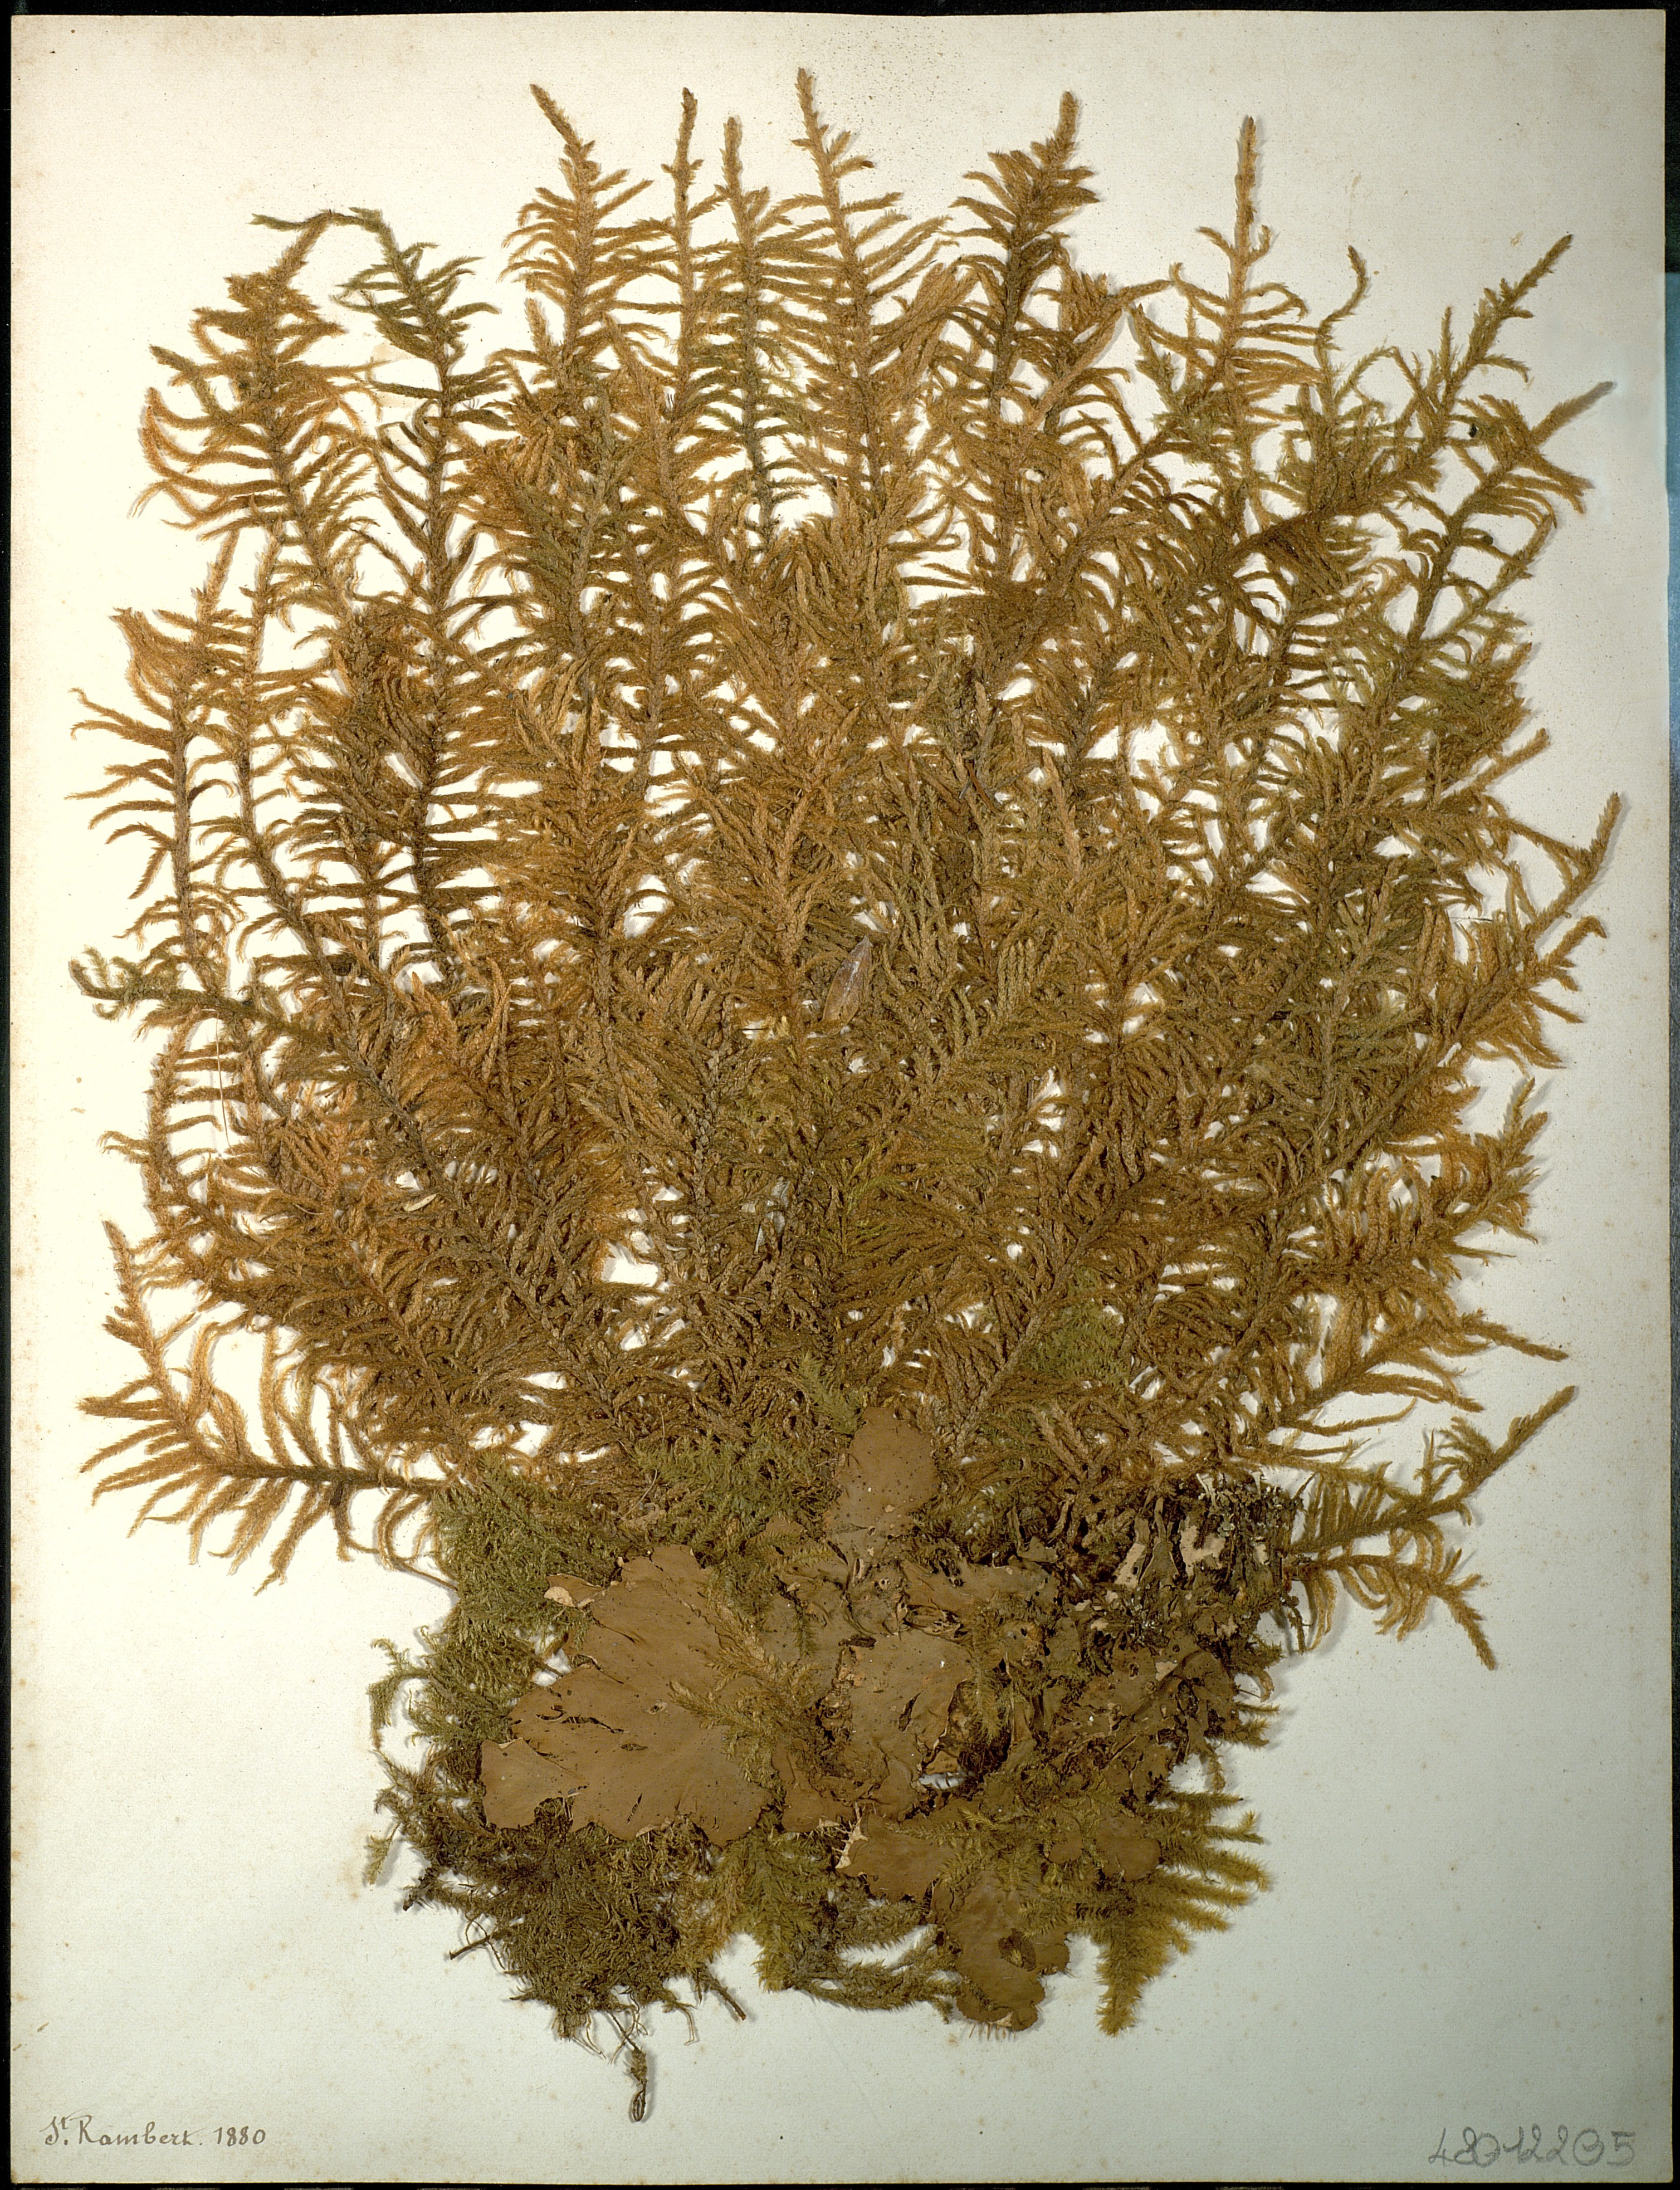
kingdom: Fungi
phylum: Ascomycota
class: Lecanoromycetes
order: Peltigerales
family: Peltigeraceae
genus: Peltigera
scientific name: Peltigera
